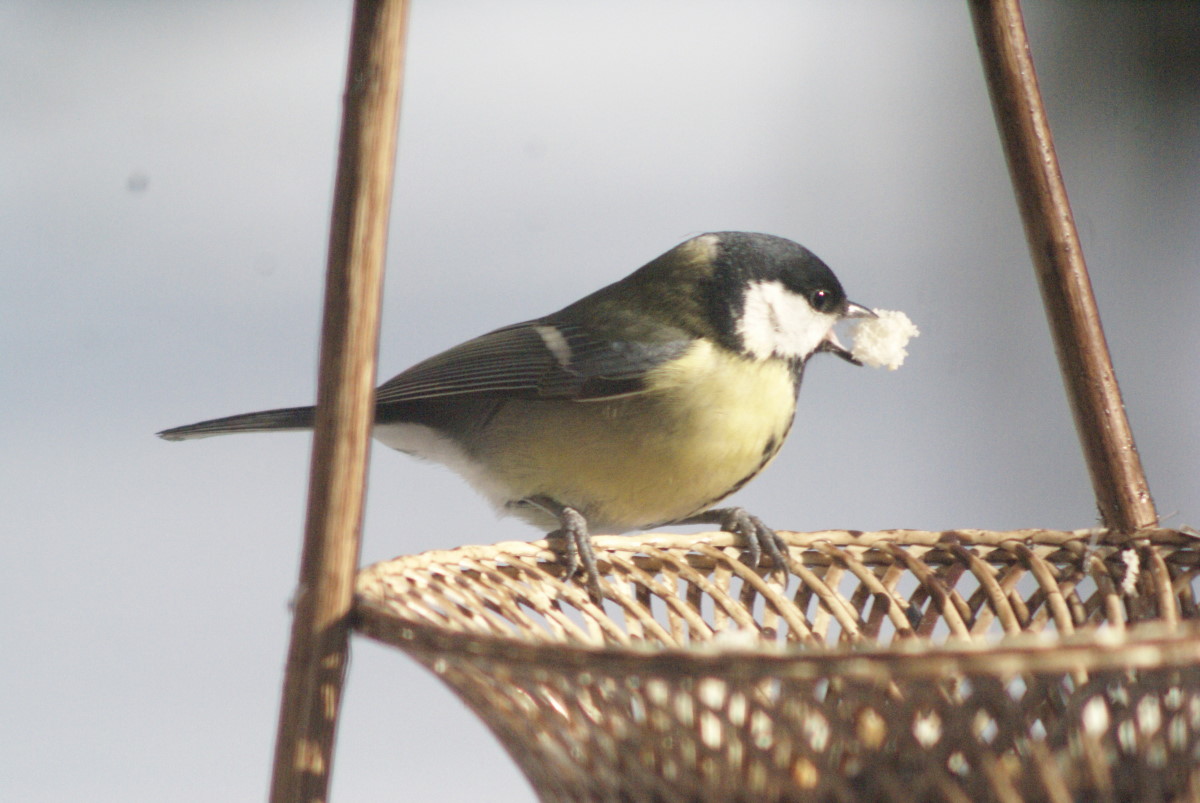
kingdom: Animalia
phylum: Chordata
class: Aves
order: Passeriformes
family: Paridae
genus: Parus
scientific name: Parus major
